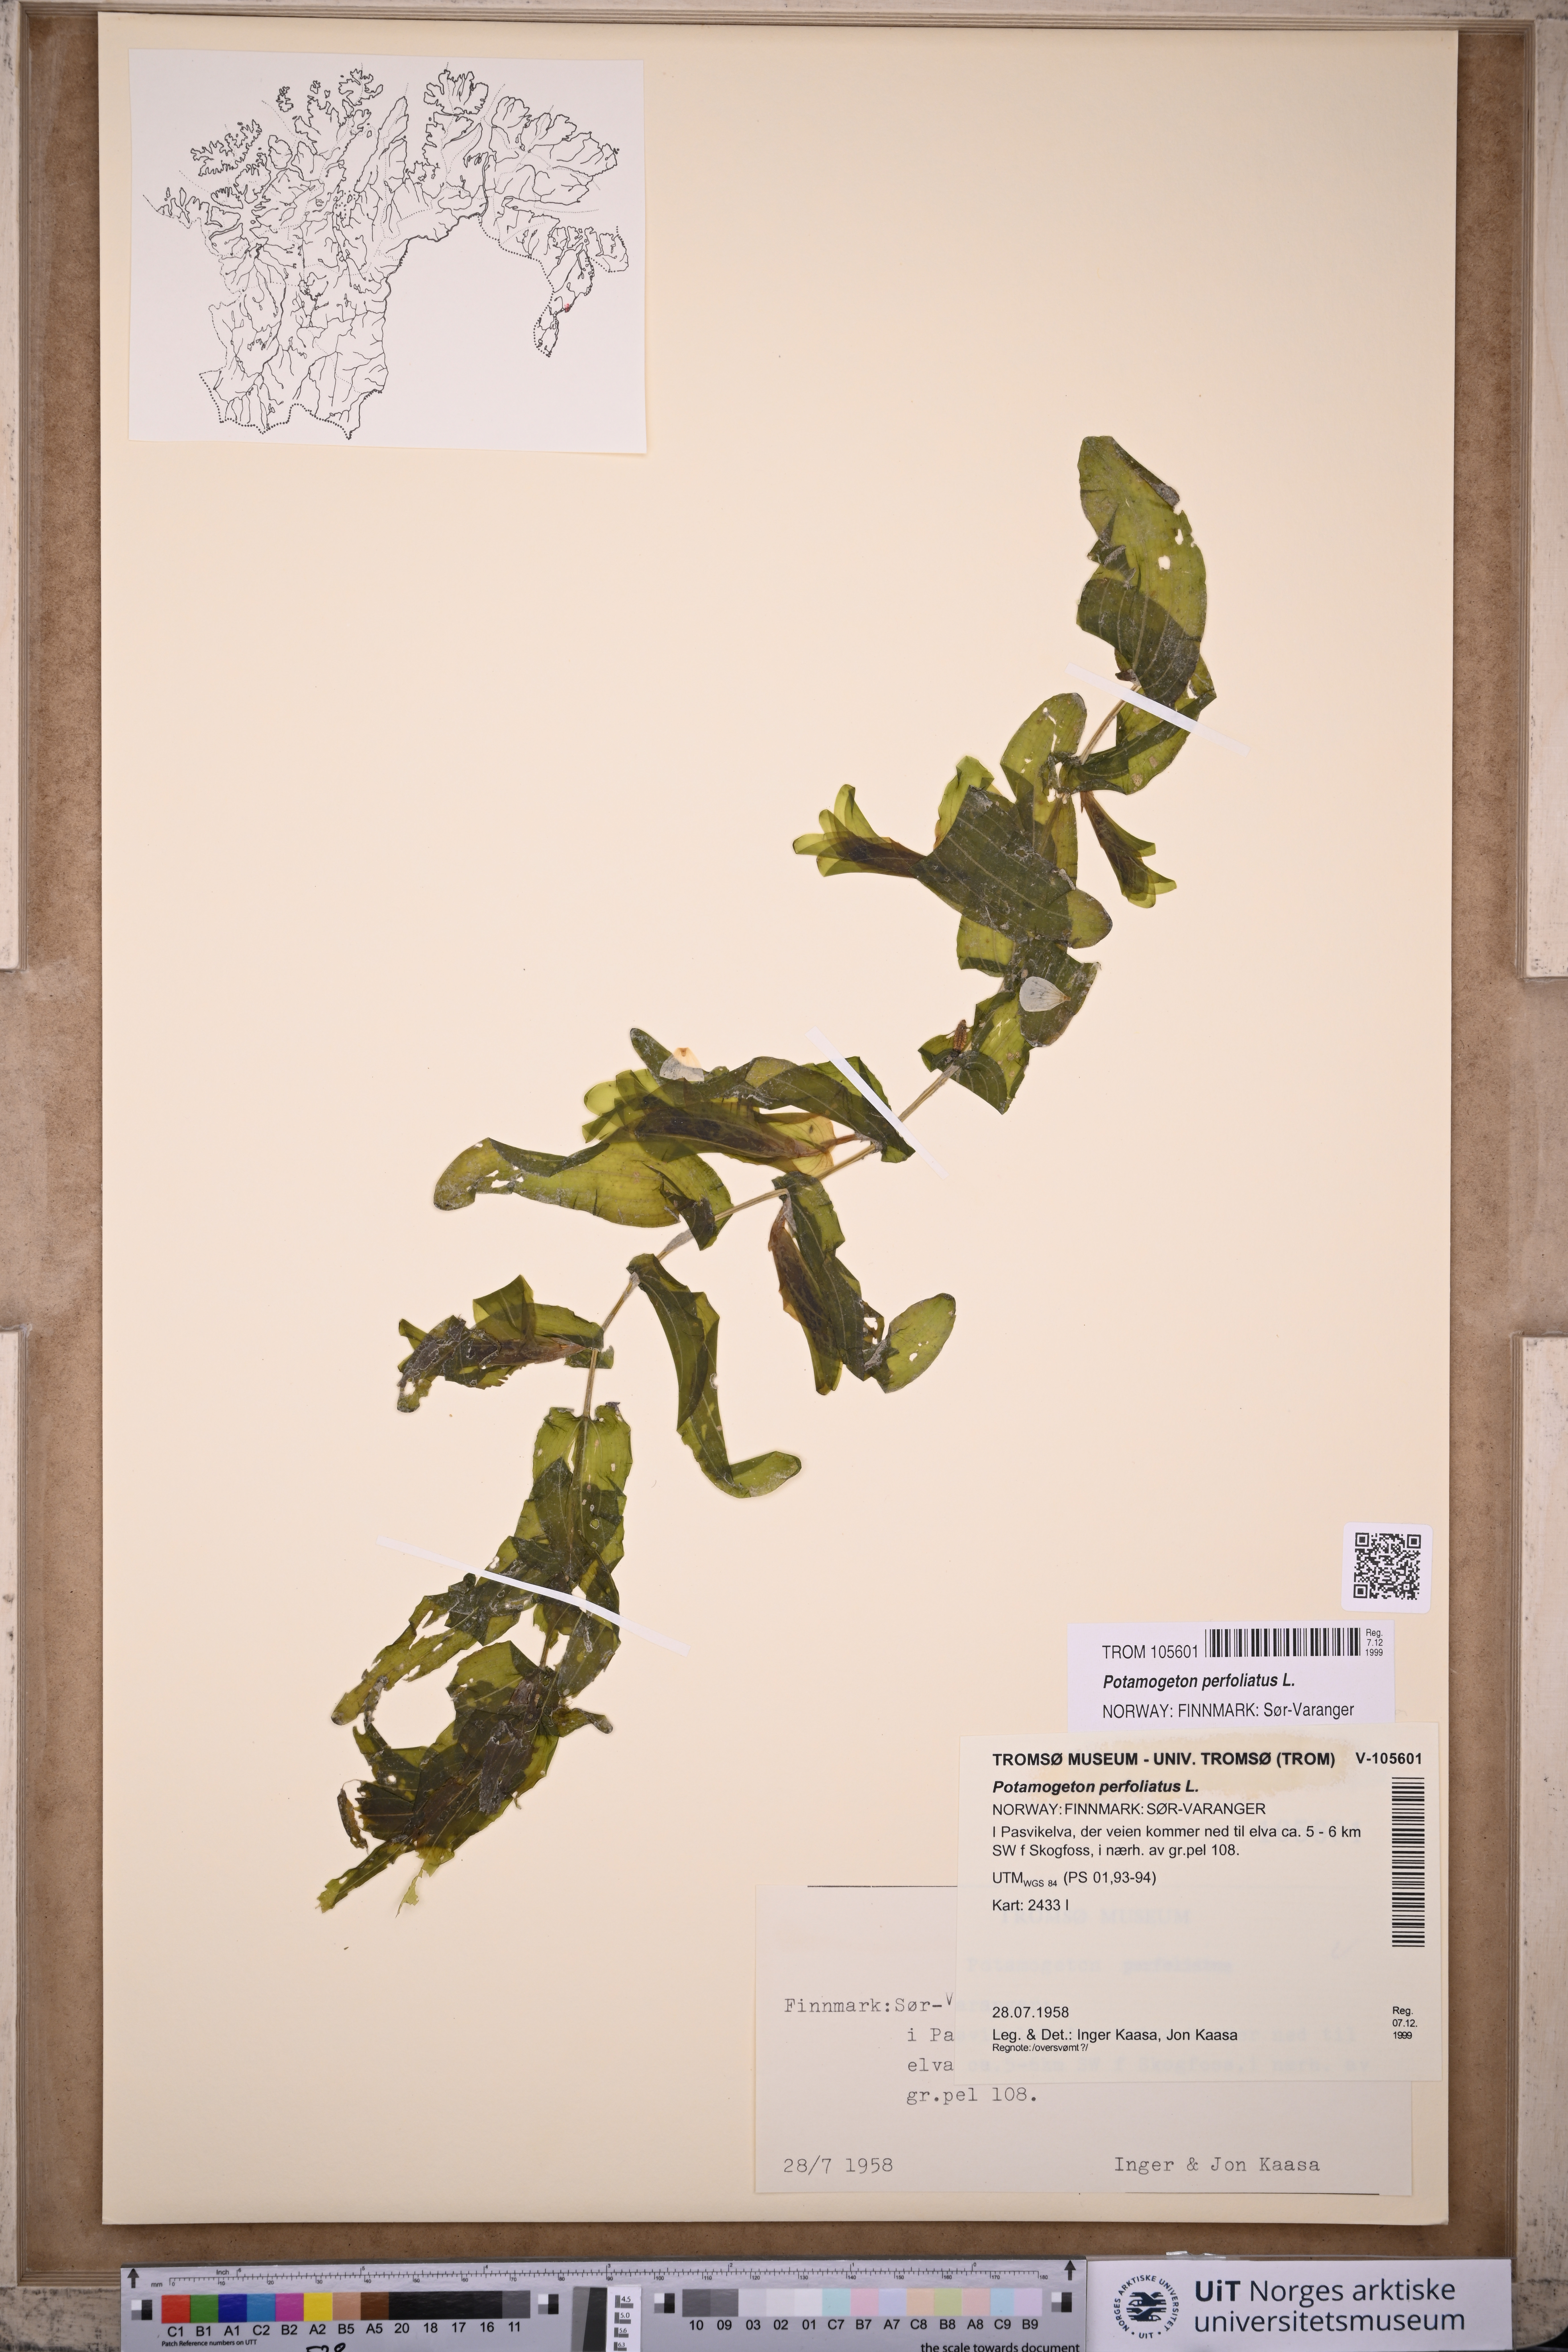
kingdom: Plantae
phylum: Tracheophyta
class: Liliopsida
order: Alismatales
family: Potamogetonaceae
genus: Potamogeton
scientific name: Potamogeton perfoliatus
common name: Perfoliate pondweed
